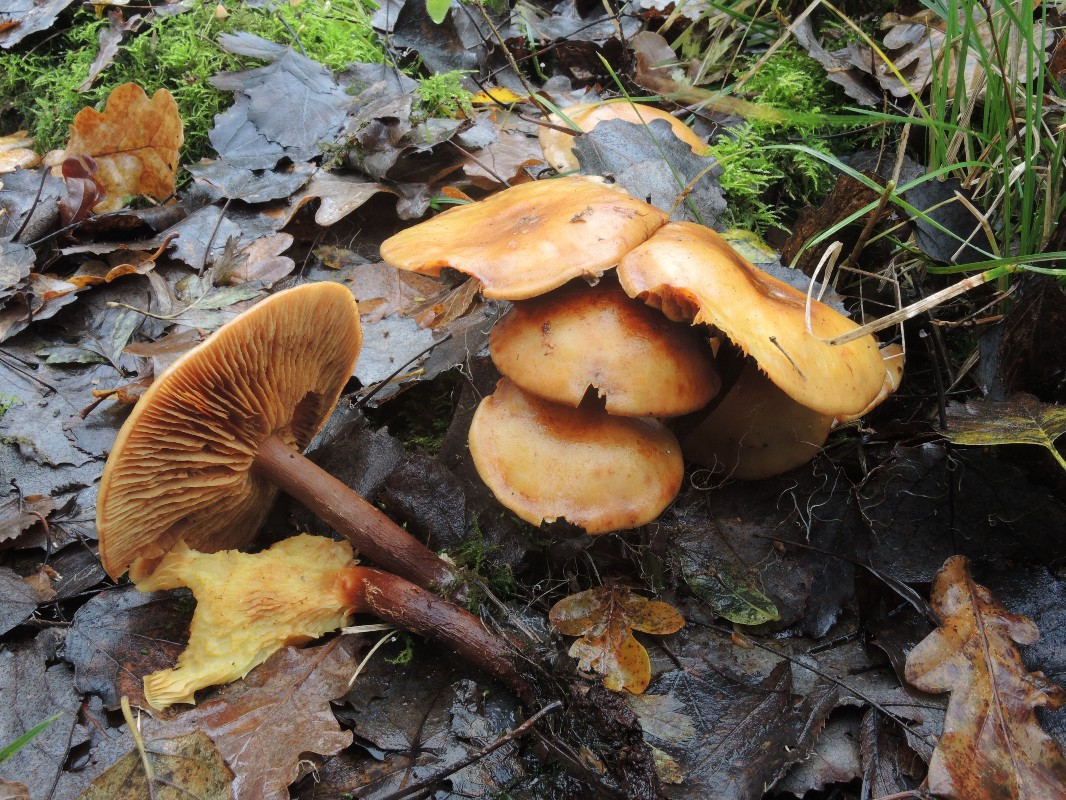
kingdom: Fungi
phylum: Basidiomycota
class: Agaricomycetes
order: Agaricales
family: Hymenogastraceae
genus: Flammula
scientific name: Flammula alnicola
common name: elle-skælhat
